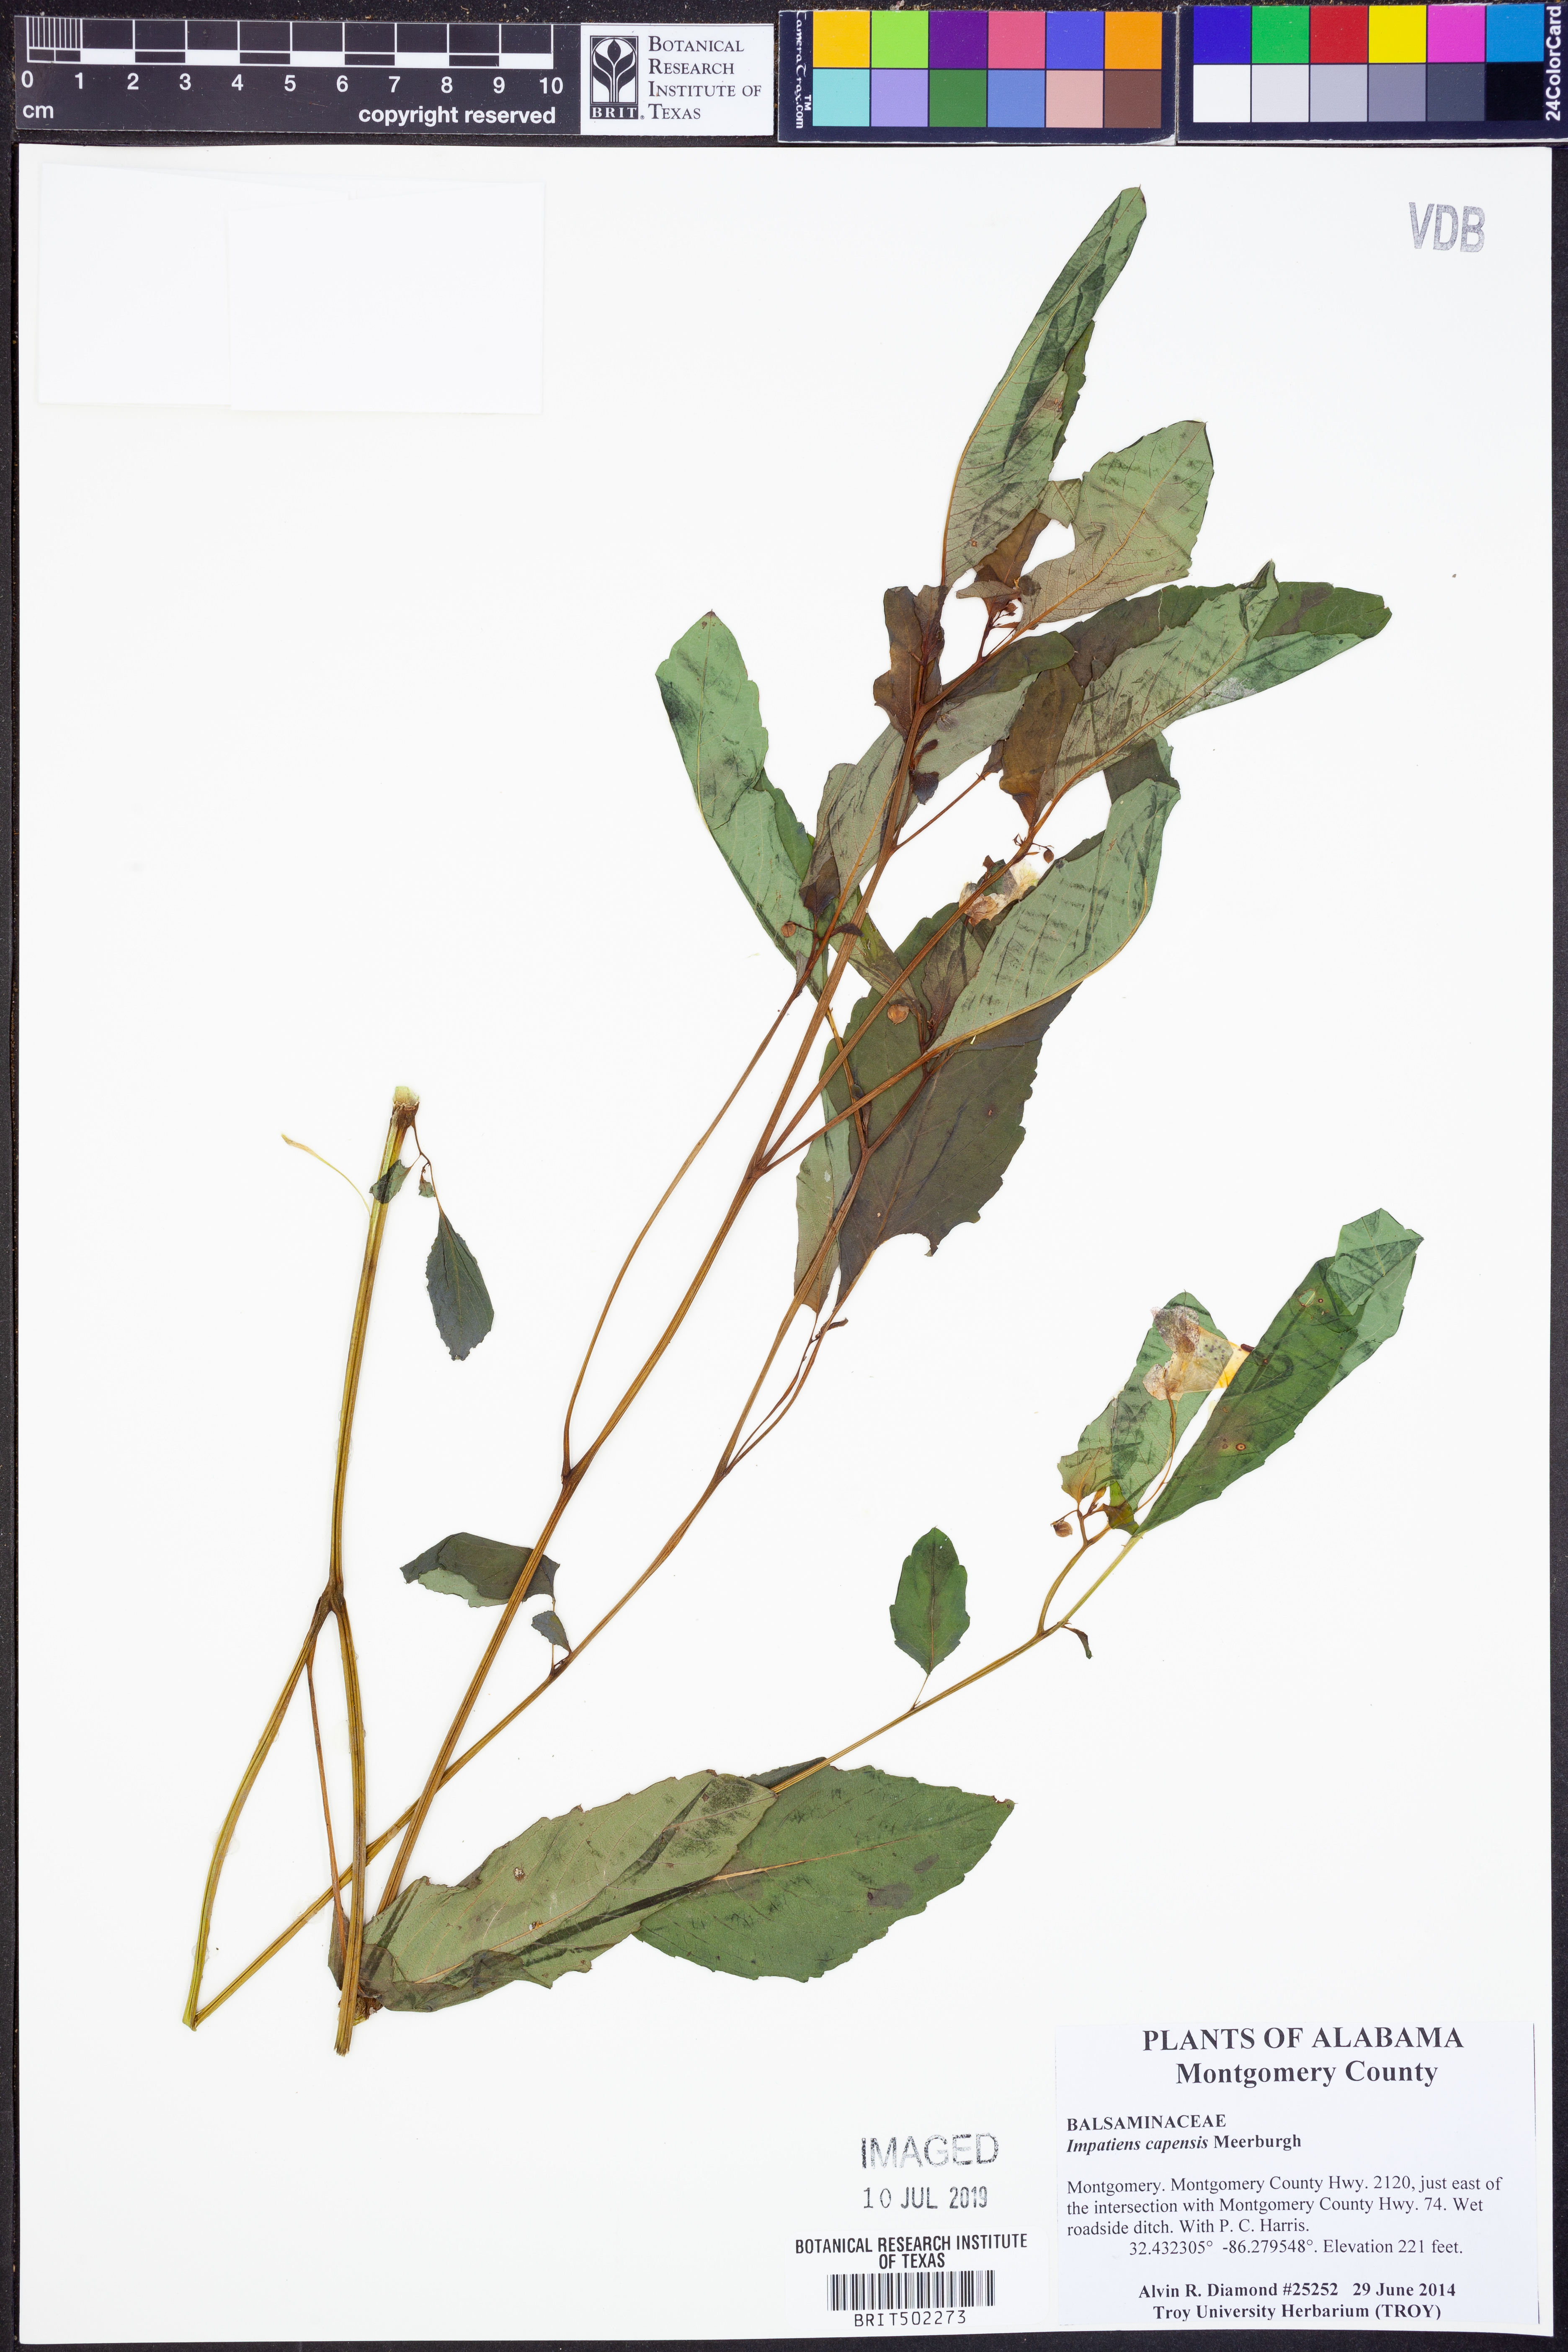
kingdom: Plantae
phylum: Tracheophyta
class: Magnoliopsida
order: Ericales
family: Balsaminaceae
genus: Impatiens
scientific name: Impatiens capensis
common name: Orange balsam
